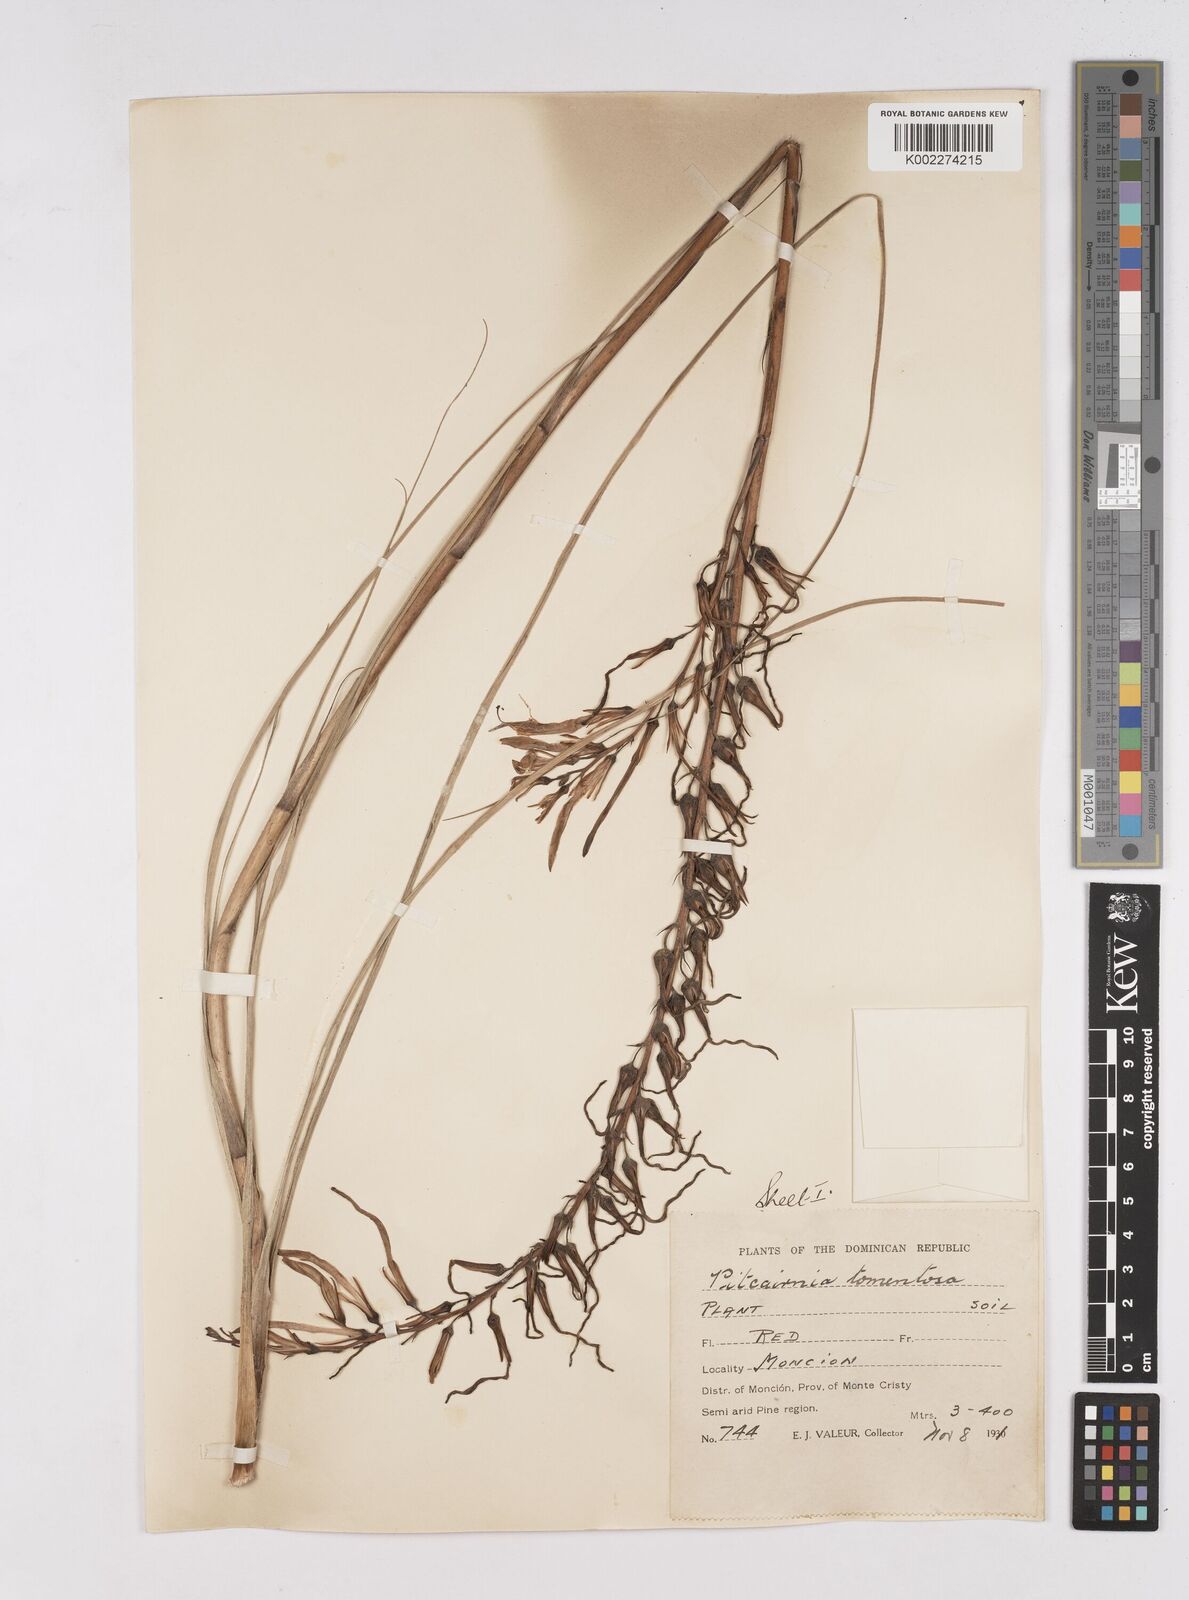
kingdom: Plantae
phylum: Tracheophyta
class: Liliopsida
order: Poales
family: Bromeliaceae
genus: Pitcairnia
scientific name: Pitcairnia fuertesii
